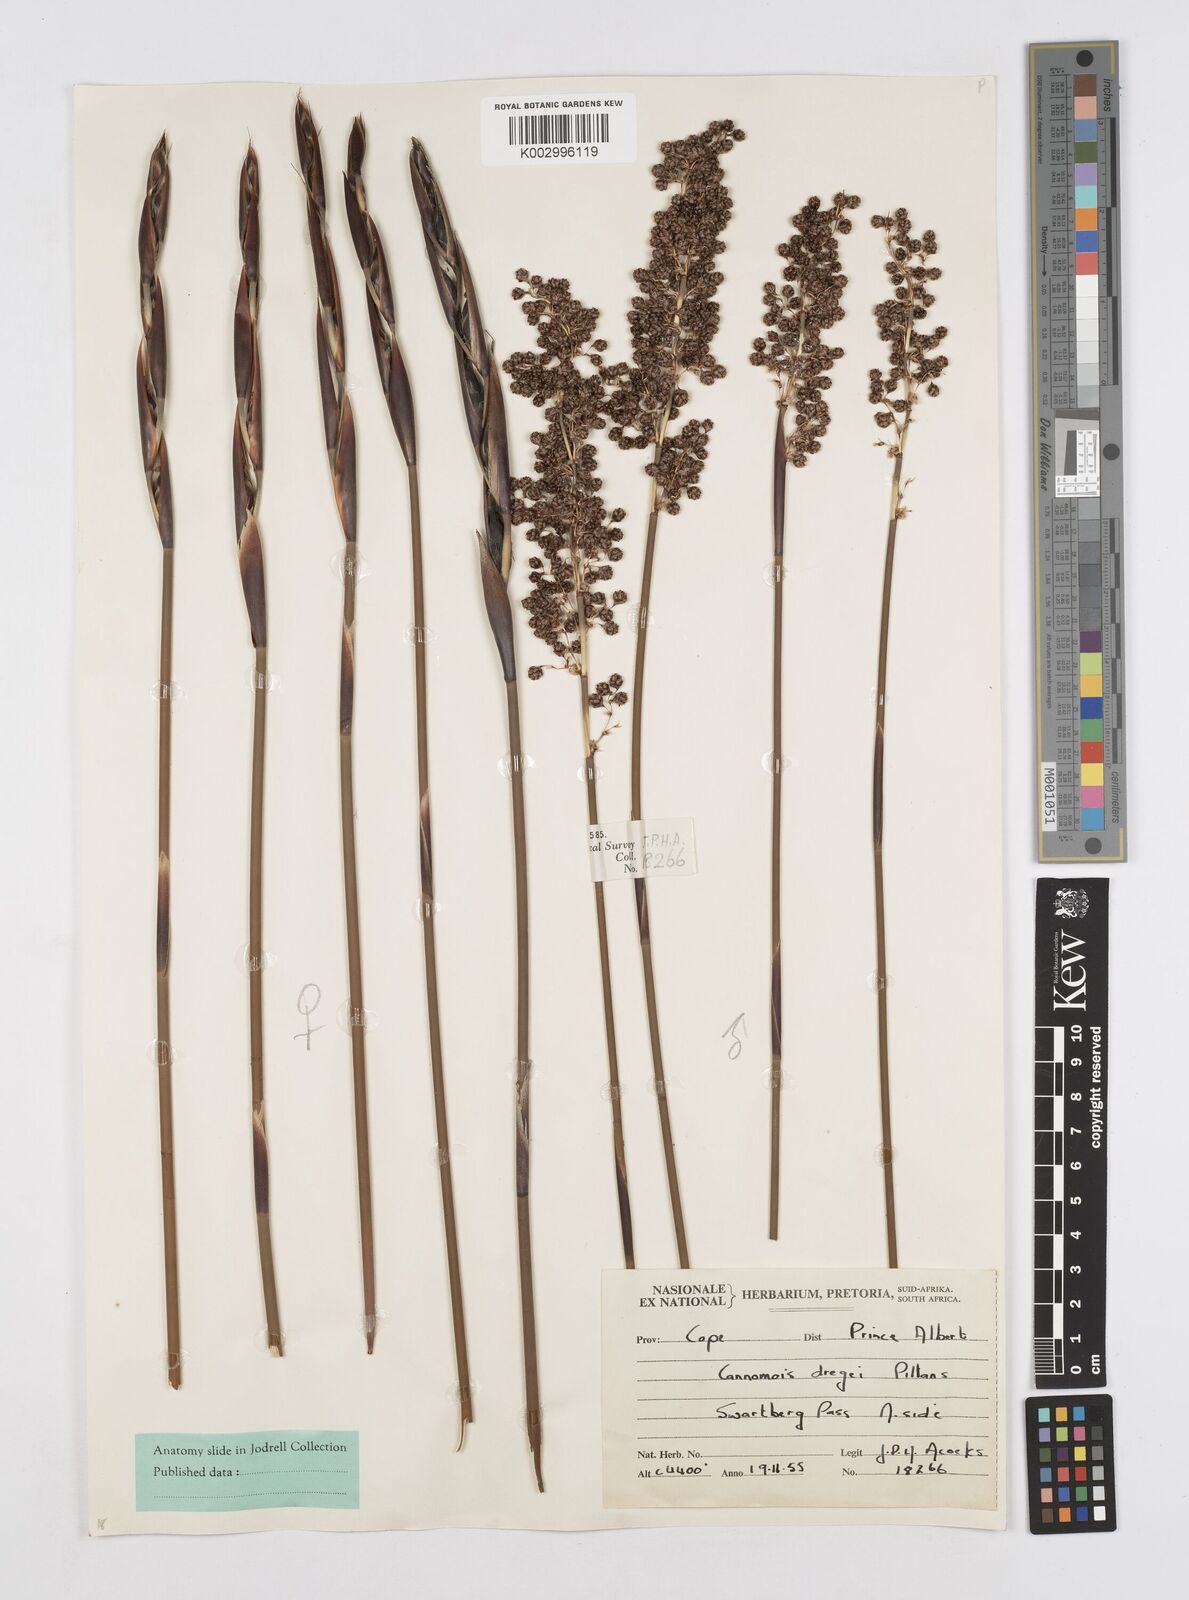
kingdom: Plantae
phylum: Tracheophyta
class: Liliopsida
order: Poales
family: Restionaceae
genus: Cannomois
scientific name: Cannomois scirpoides
